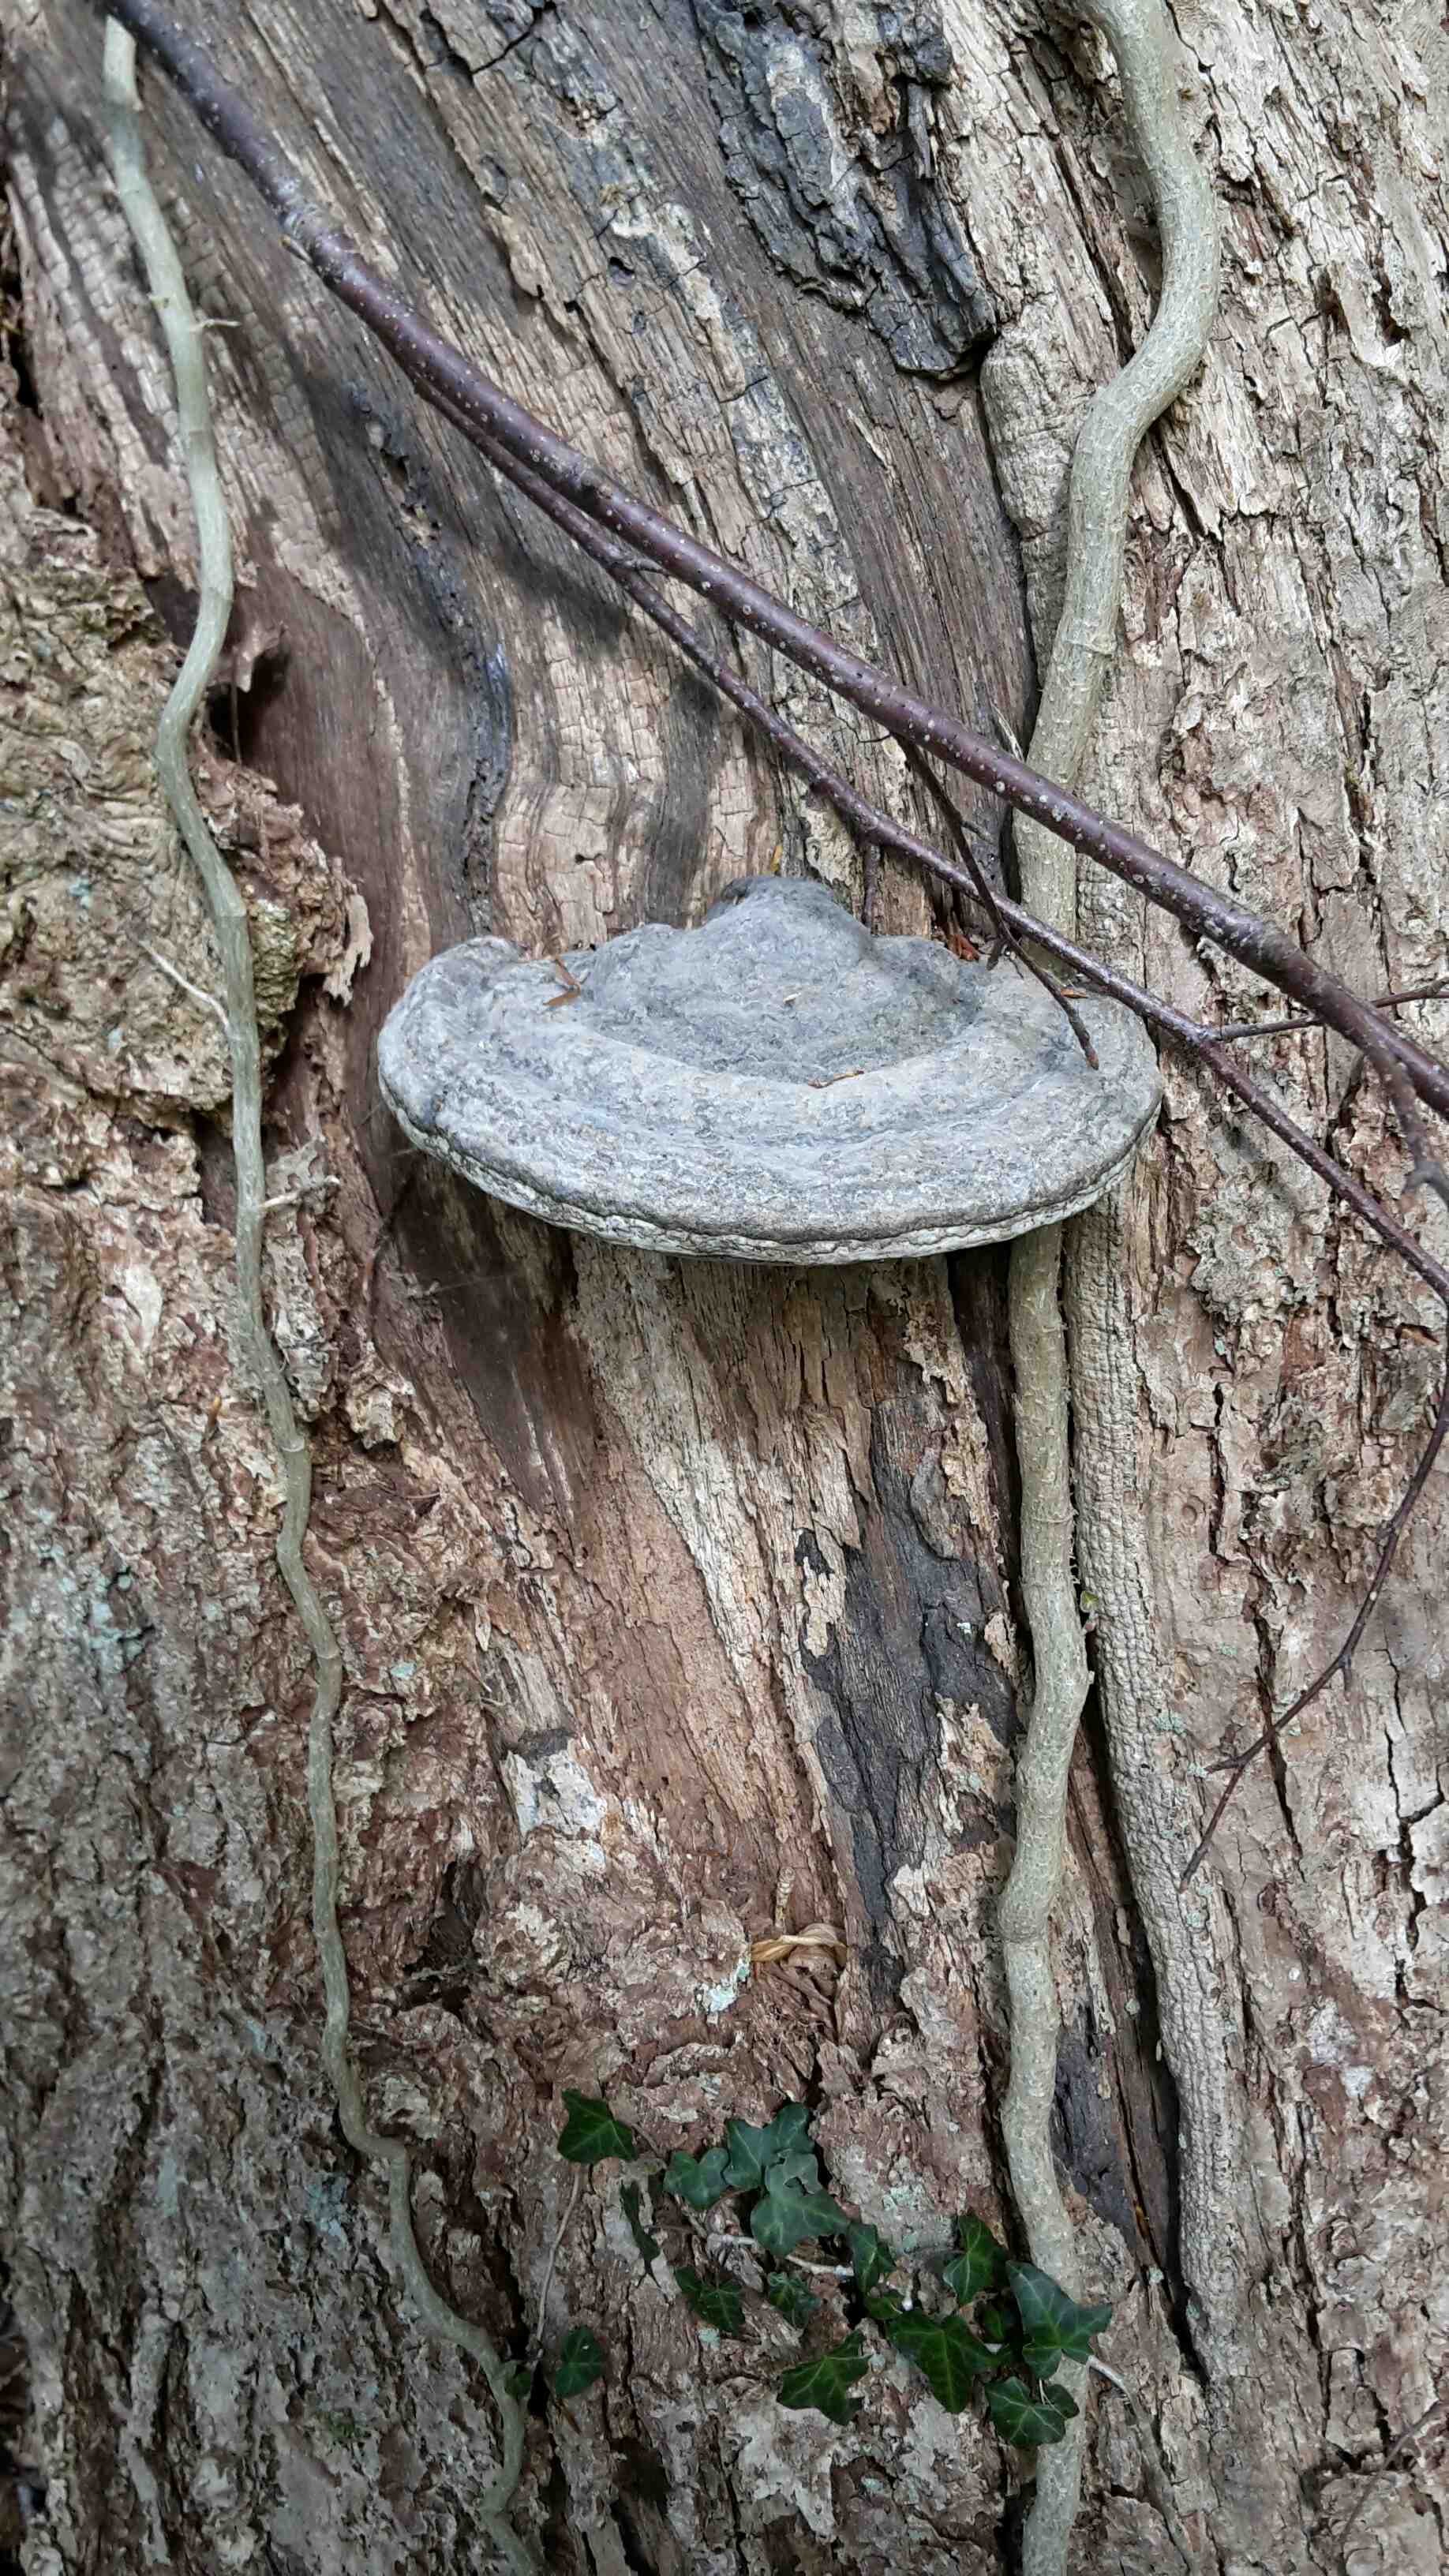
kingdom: Fungi
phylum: Basidiomycota
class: Agaricomycetes
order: Polyporales
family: Polyporaceae
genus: Fomes
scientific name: Fomes fomentarius
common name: tøndersvamp
